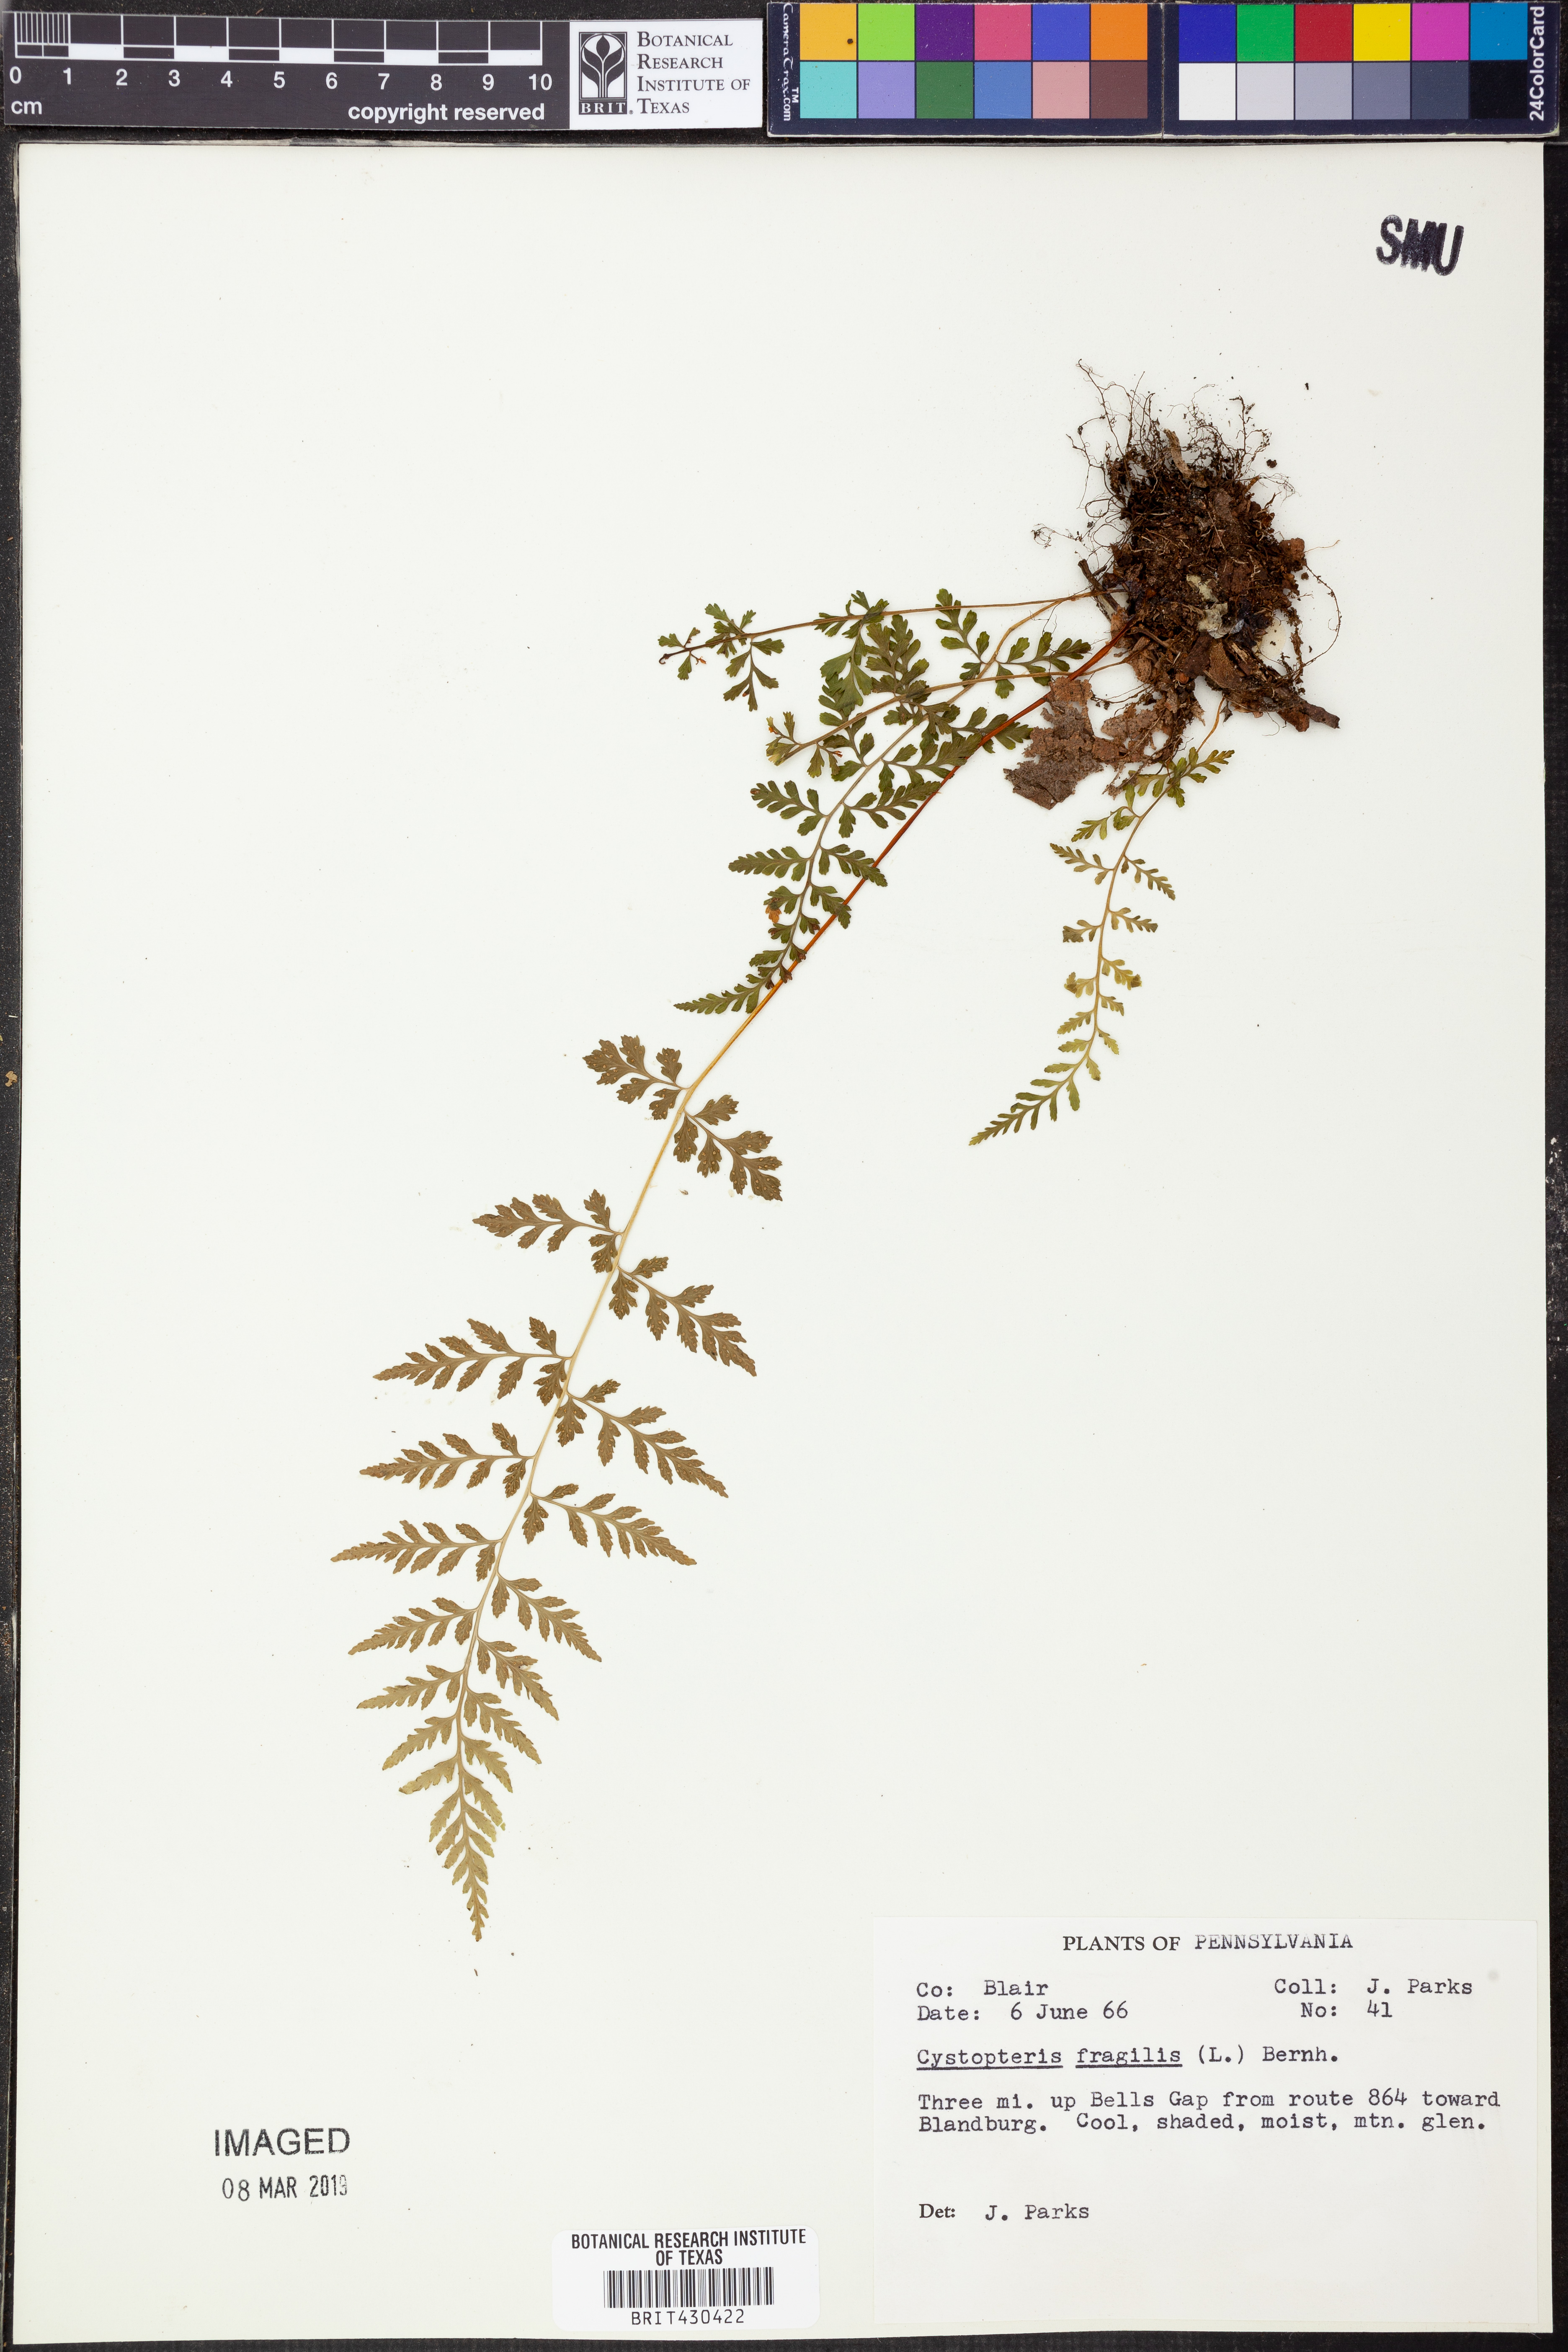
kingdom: Plantae
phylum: Tracheophyta
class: Polypodiopsida
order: Polypodiales
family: Cystopteridaceae
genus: Cystopteris
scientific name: Cystopteris fragilis
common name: Brittle bladder fern
